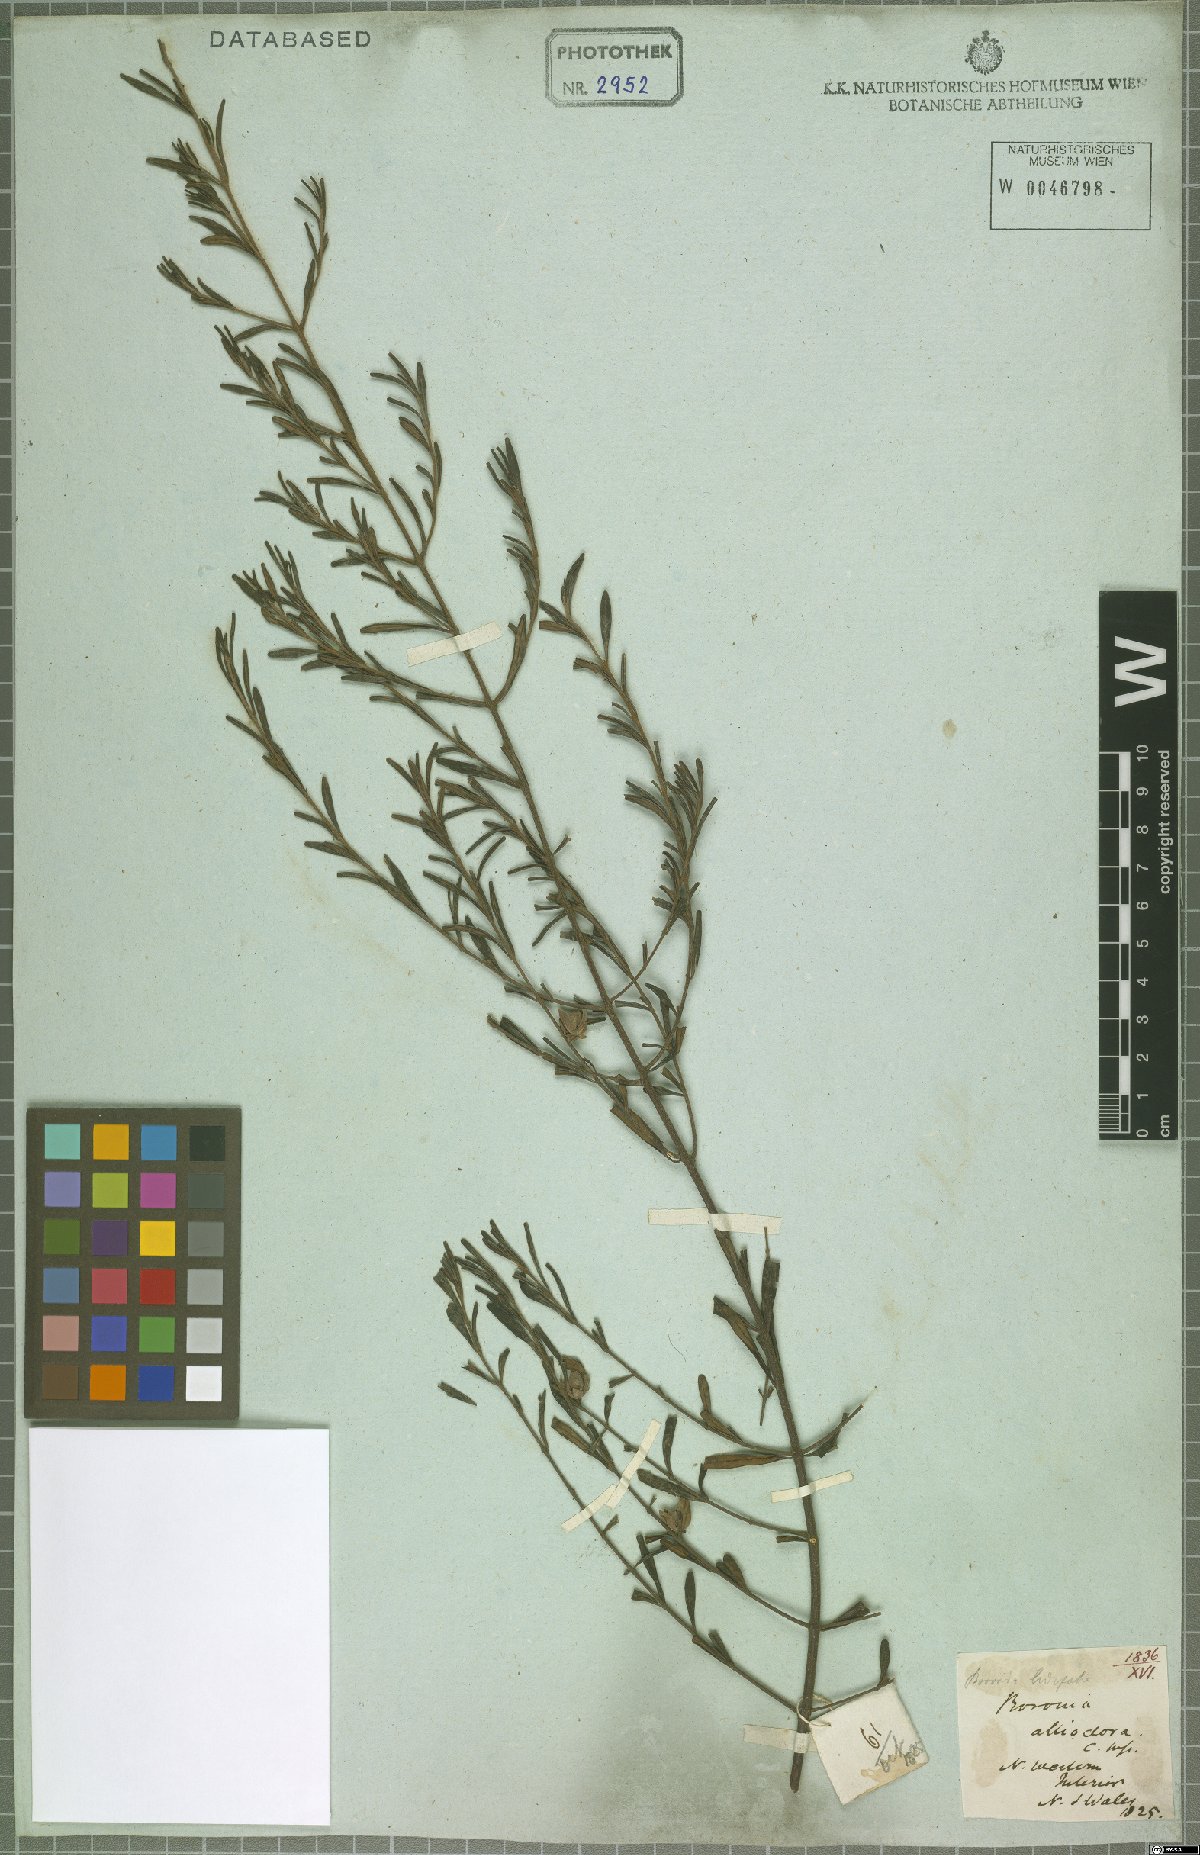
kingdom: Plantae
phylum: Tracheophyta
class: Magnoliopsida
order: Sapindales
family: Rutaceae
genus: Boronia
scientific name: Boronia ledifolia
